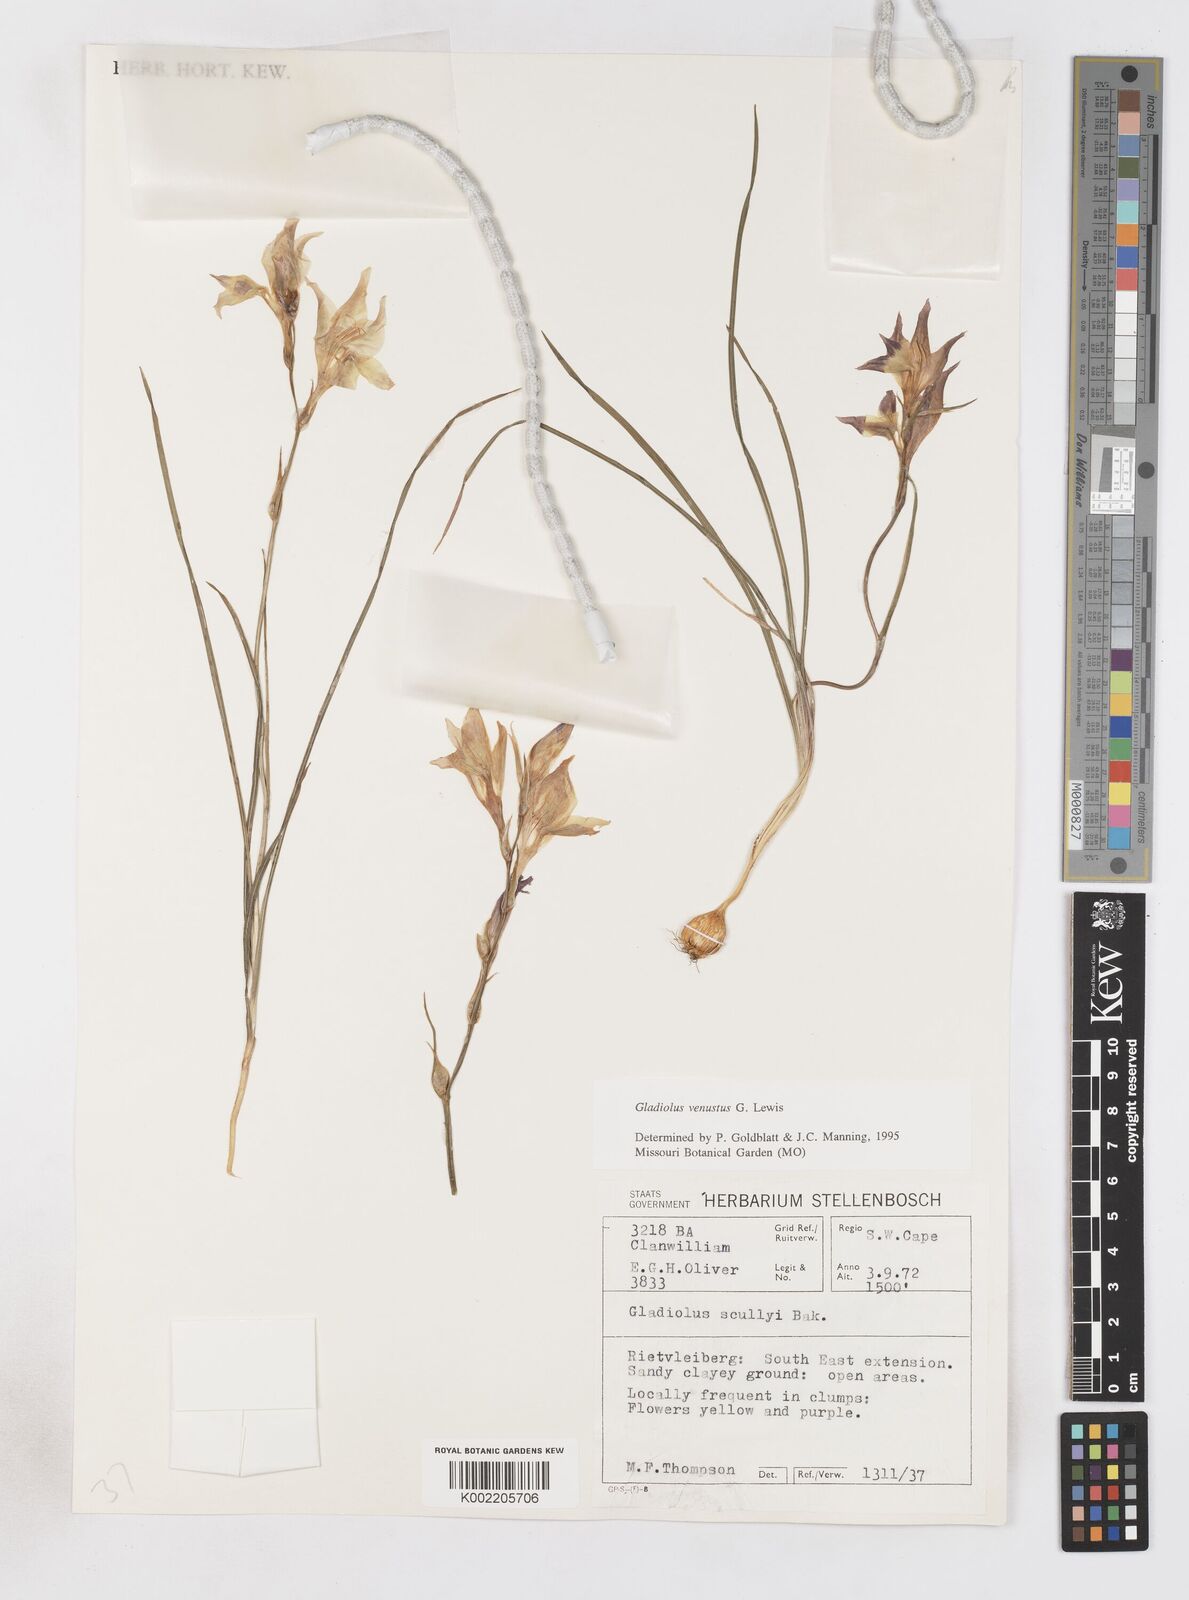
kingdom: Plantae
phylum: Tracheophyta
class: Liliopsida
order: Asparagales
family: Iridaceae
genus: Gladiolus
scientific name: Gladiolus densiflorus
